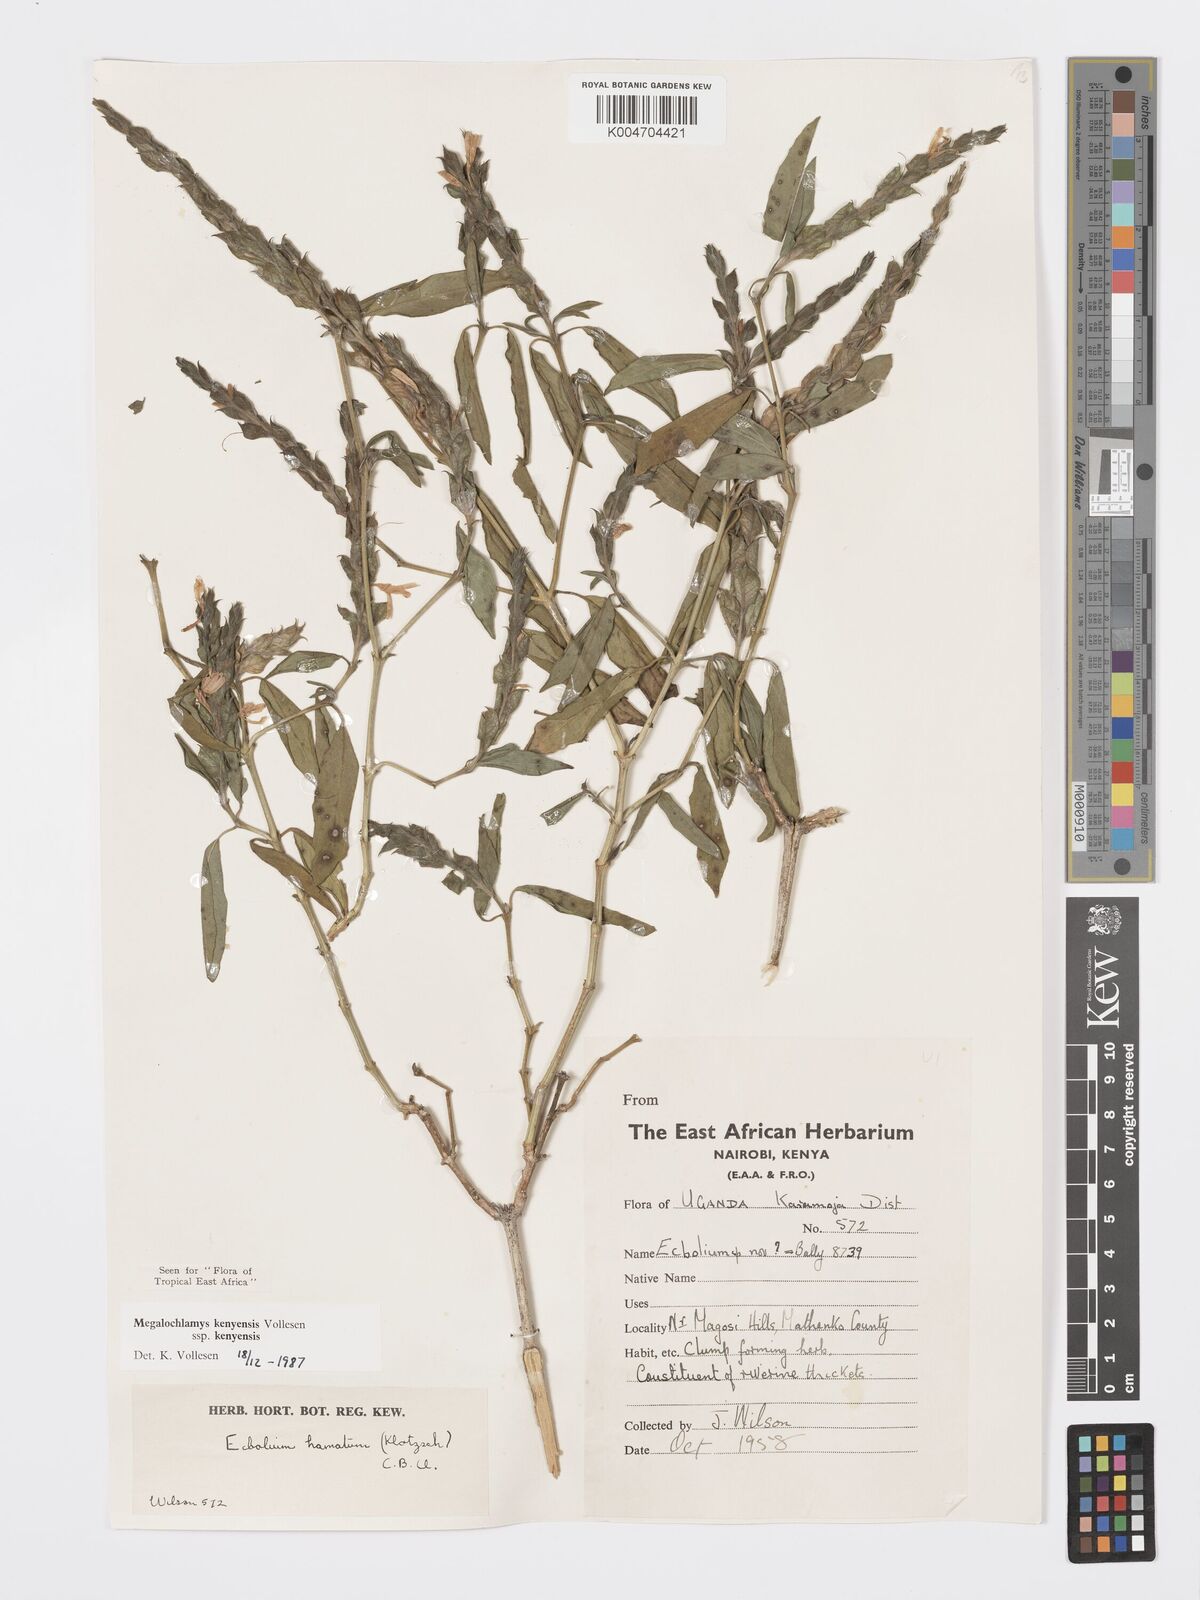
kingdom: Plantae
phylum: Tracheophyta
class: Magnoliopsida
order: Lamiales
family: Acanthaceae
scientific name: Acanthaceae
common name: Acanthaceae
